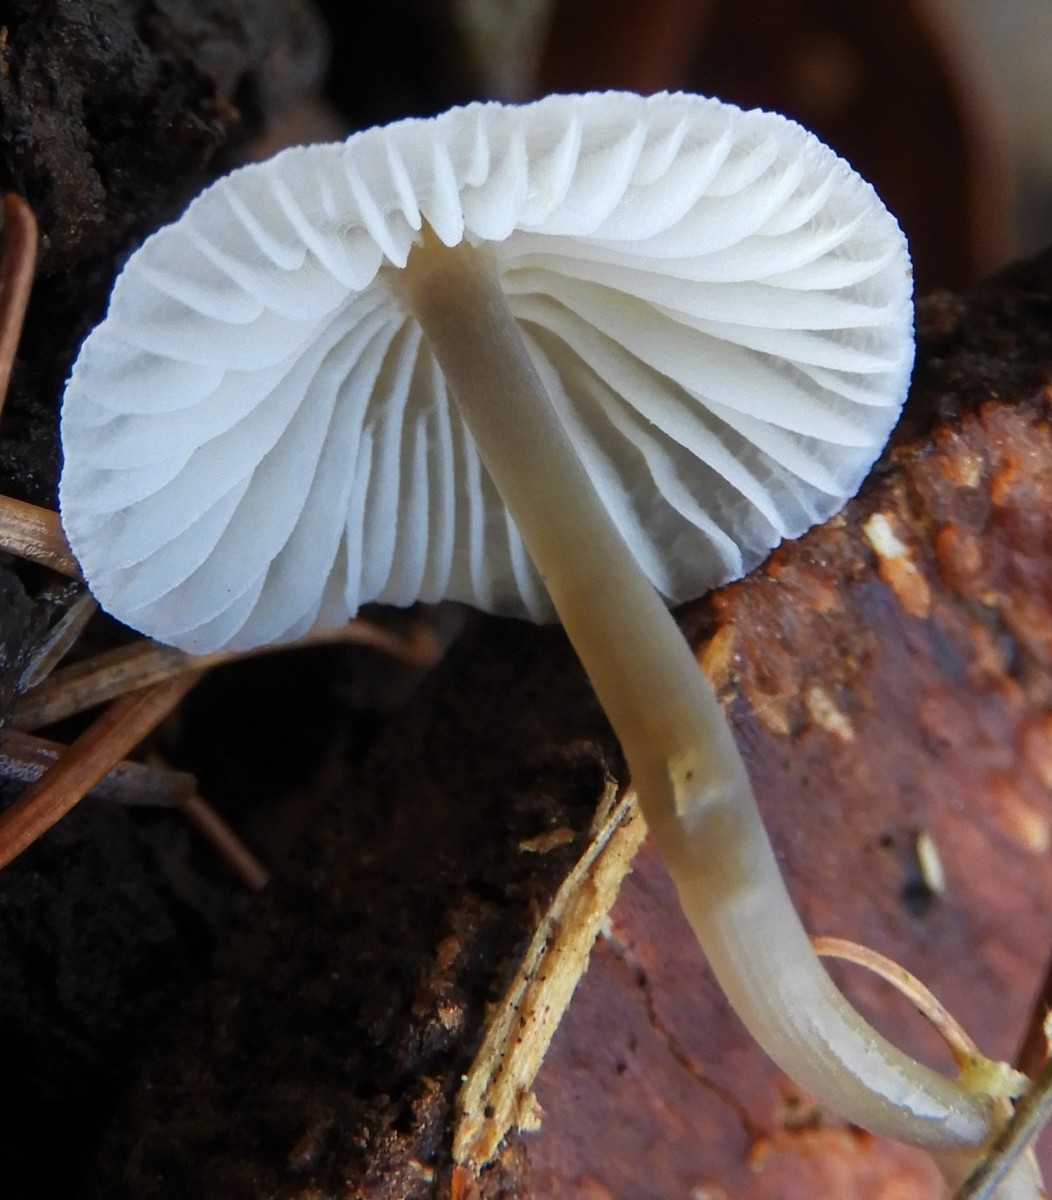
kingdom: Fungi
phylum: Basidiomycota
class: Agaricomycetes
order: Agaricales
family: Mycenaceae
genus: Mycena
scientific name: Mycena
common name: huesvamp
